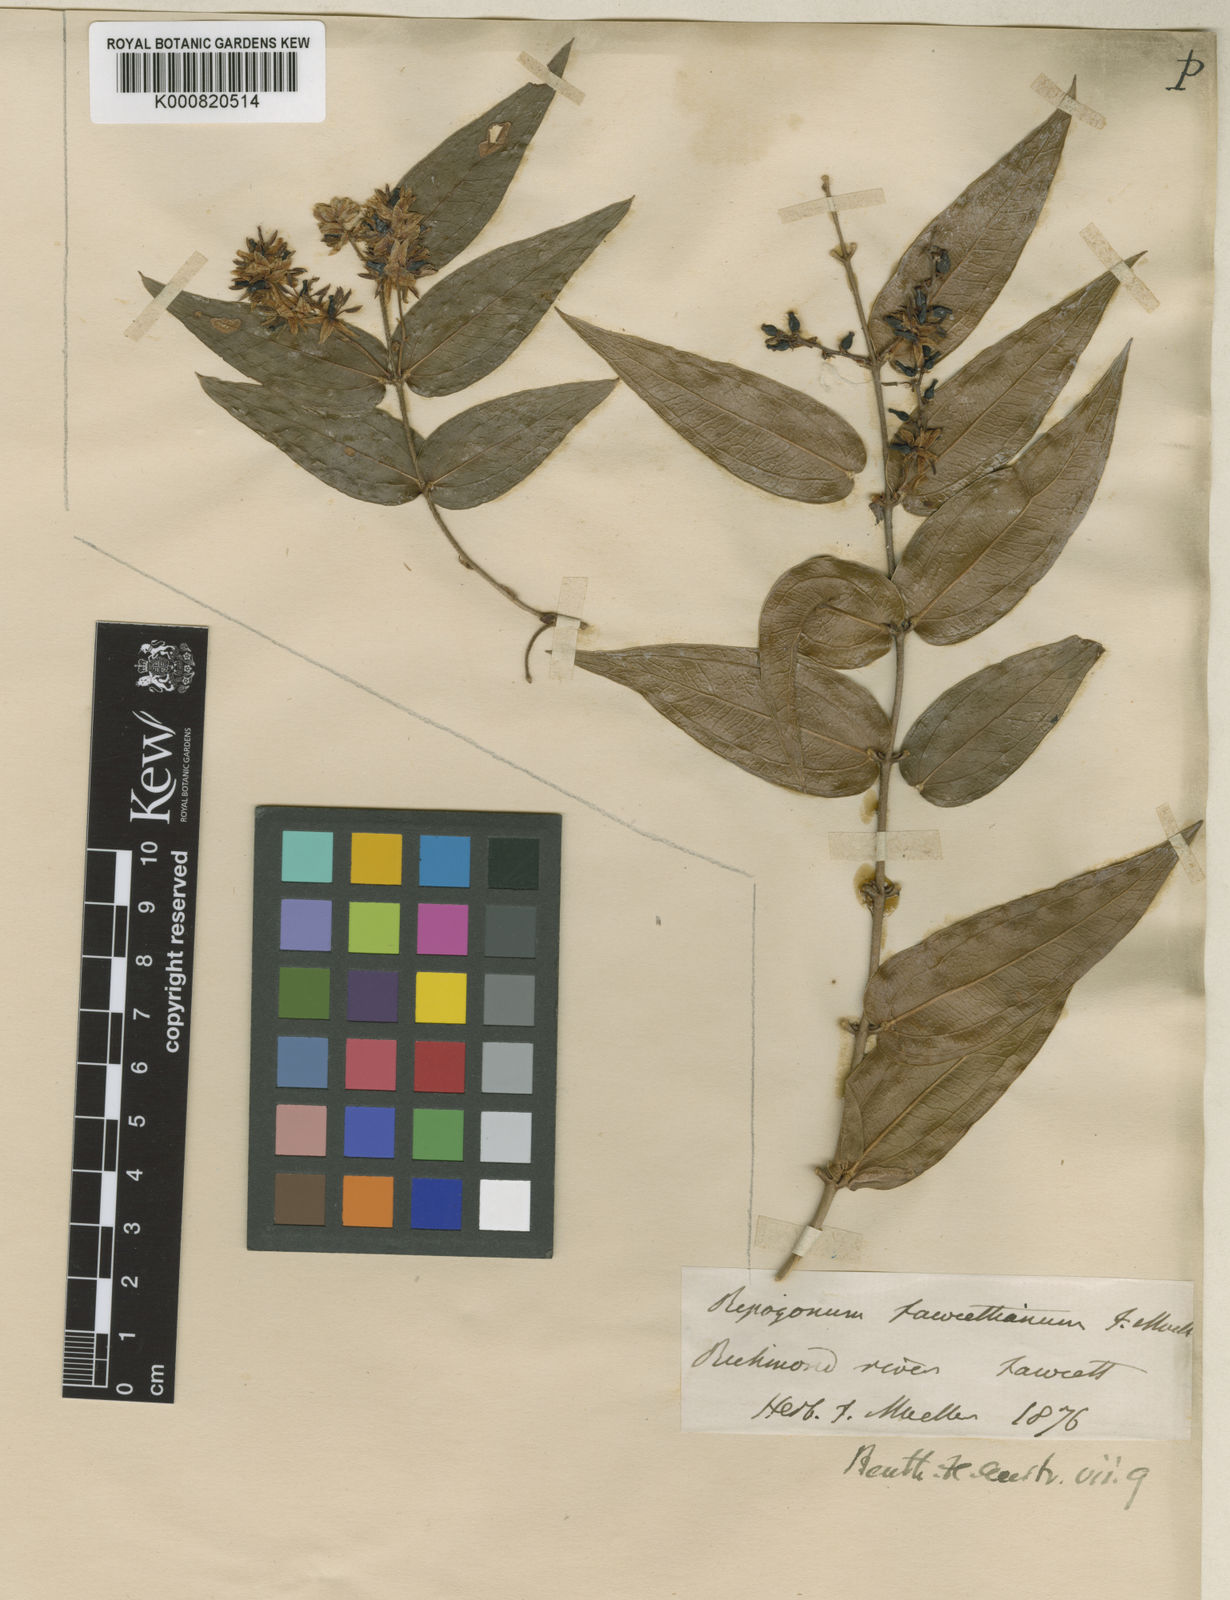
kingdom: Plantae
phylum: Tracheophyta
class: Liliopsida
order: Liliales
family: Ripogonaceae
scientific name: Ripogonaceae
